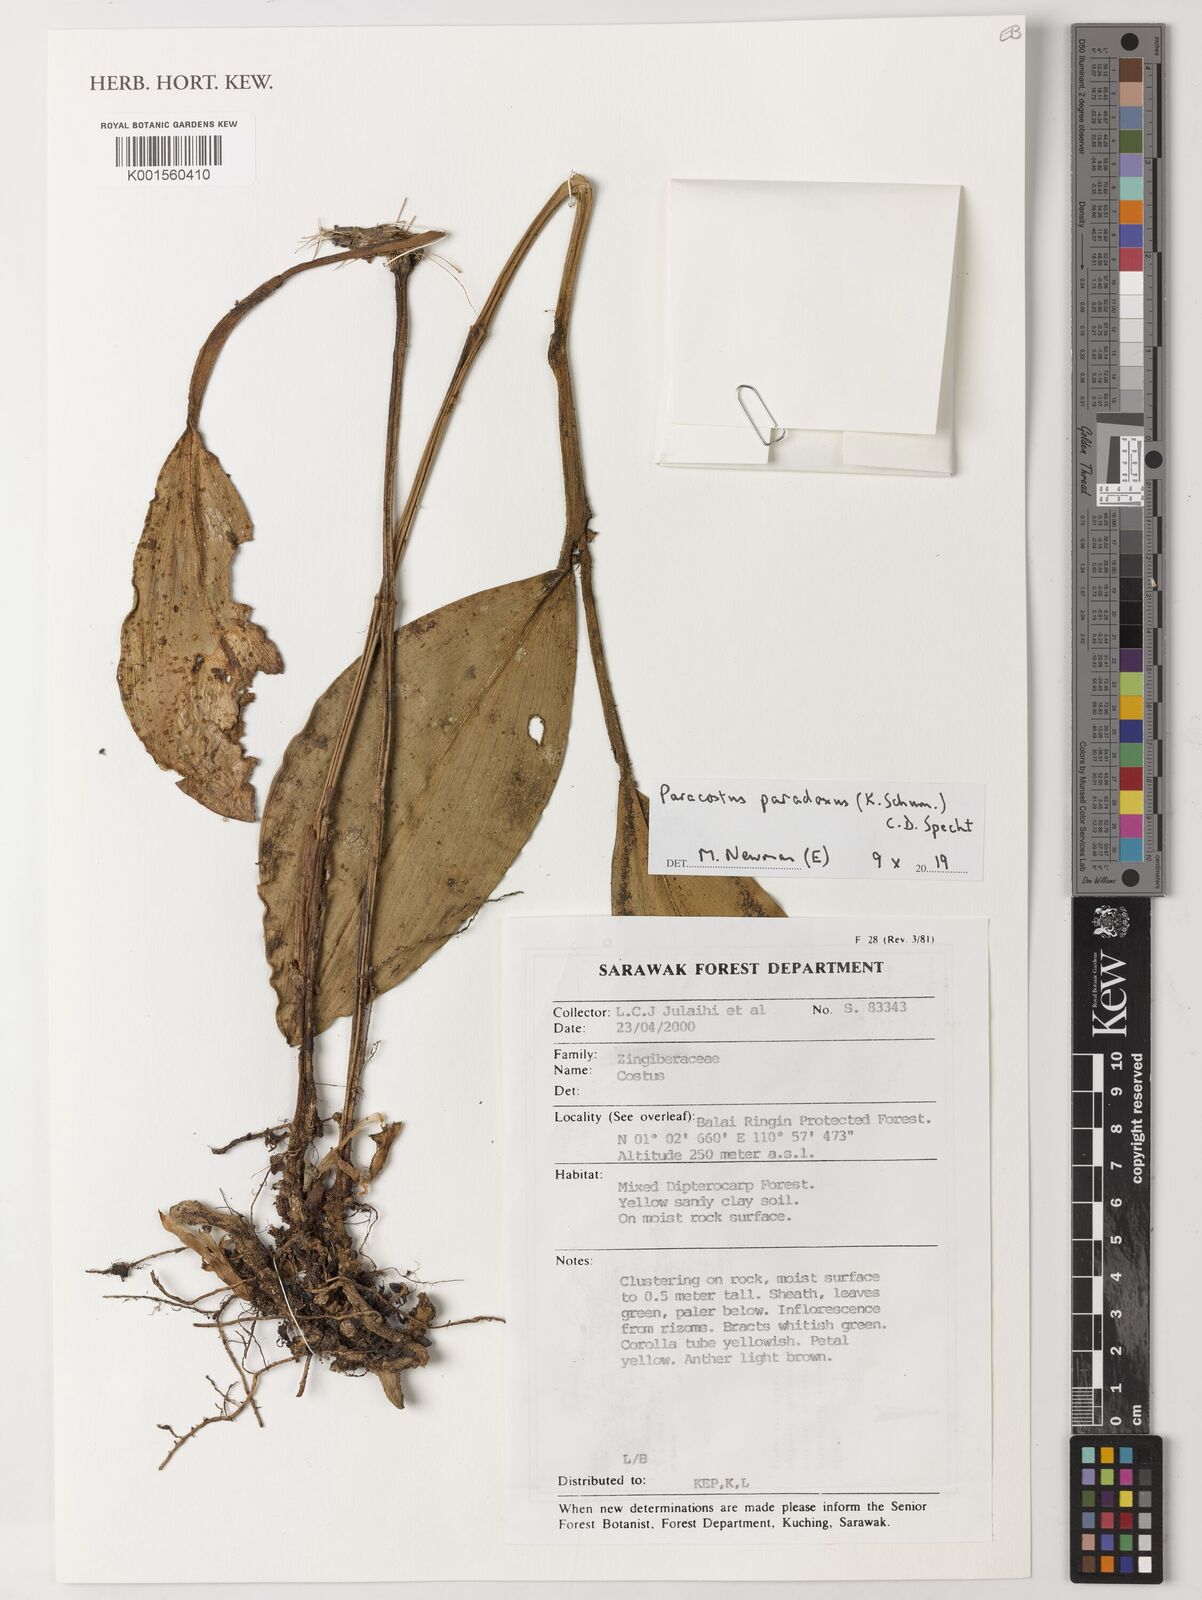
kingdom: Plantae
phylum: Tracheophyta
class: Liliopsida
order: Zingiberales
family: Costaceae
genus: Paracostus
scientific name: Paracostus paradoxus
